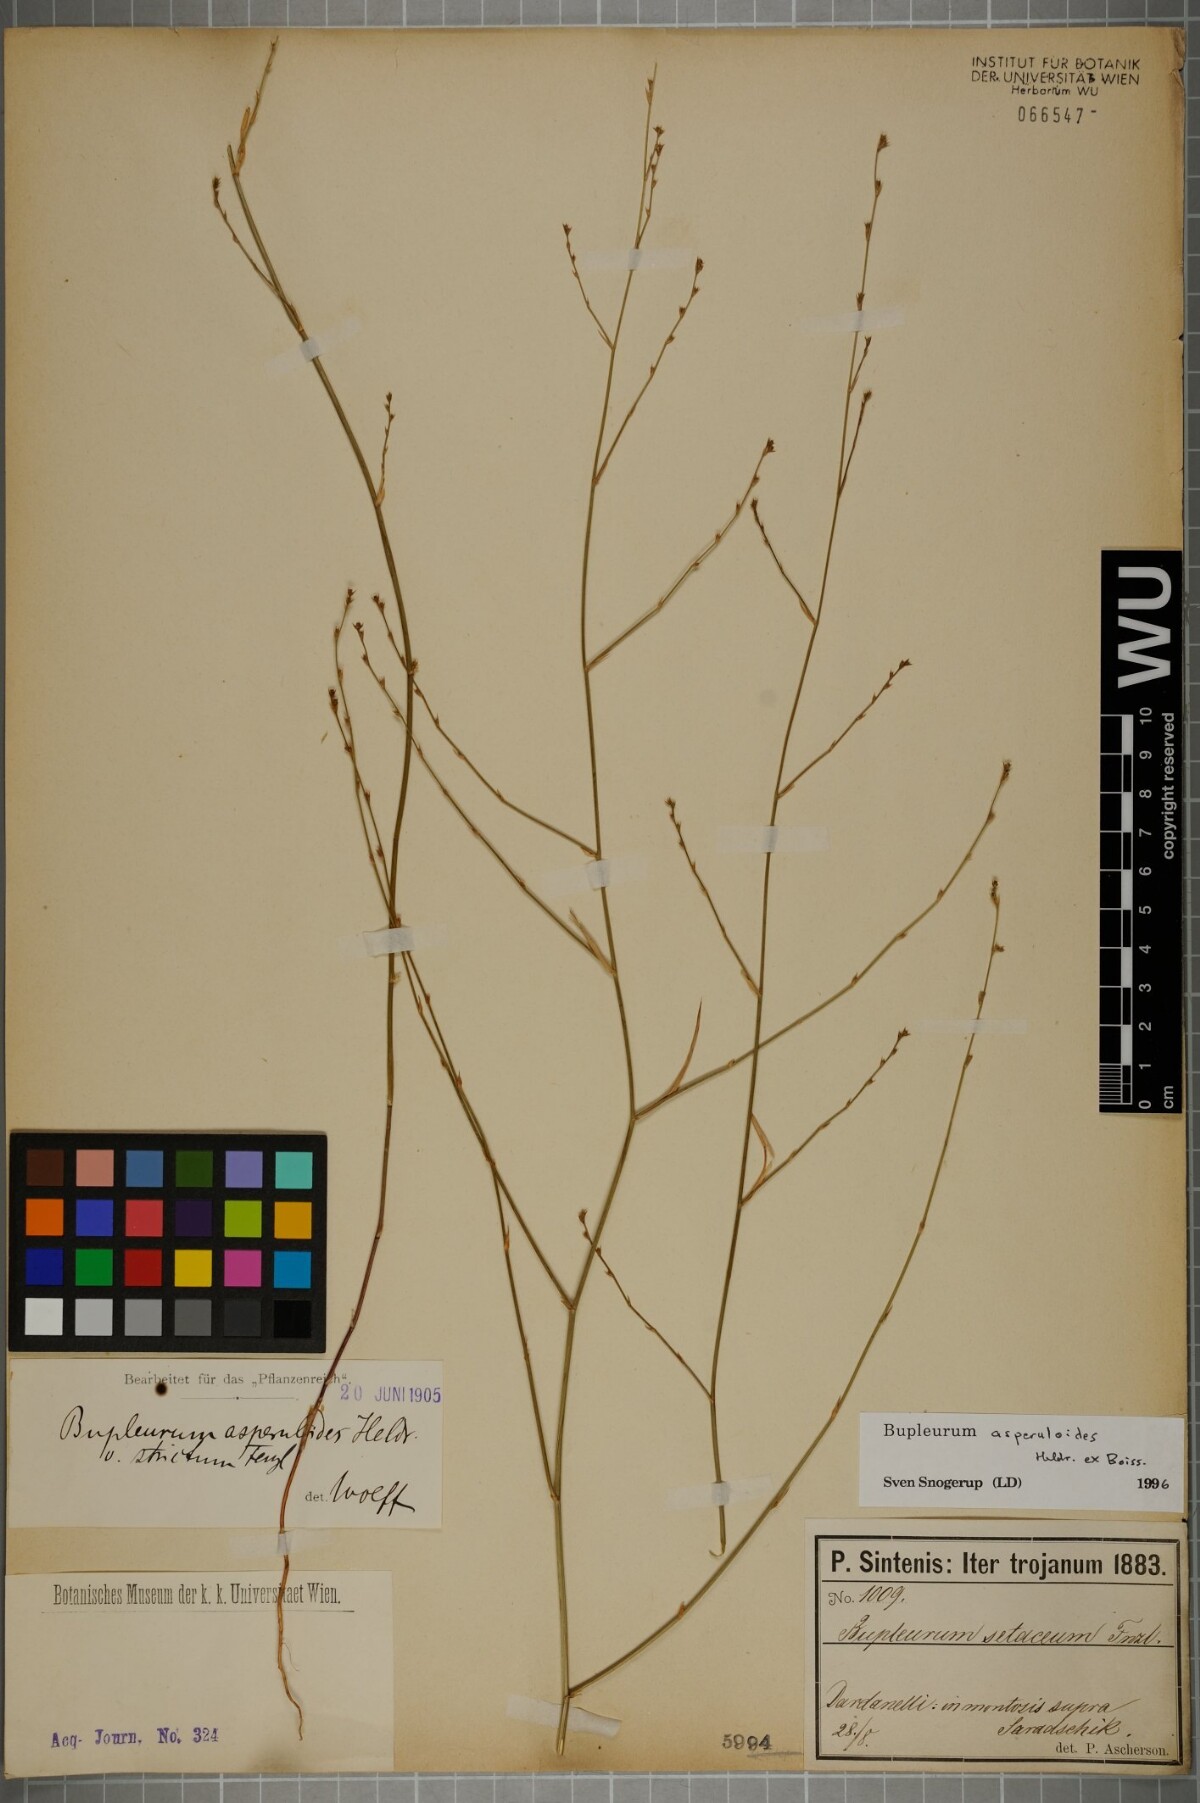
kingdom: Plantae
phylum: Tracheophyta
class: Magnoliopsida
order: Apiales
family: Apiaceae
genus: Bupleurum
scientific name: Bupleurum asperuloides
